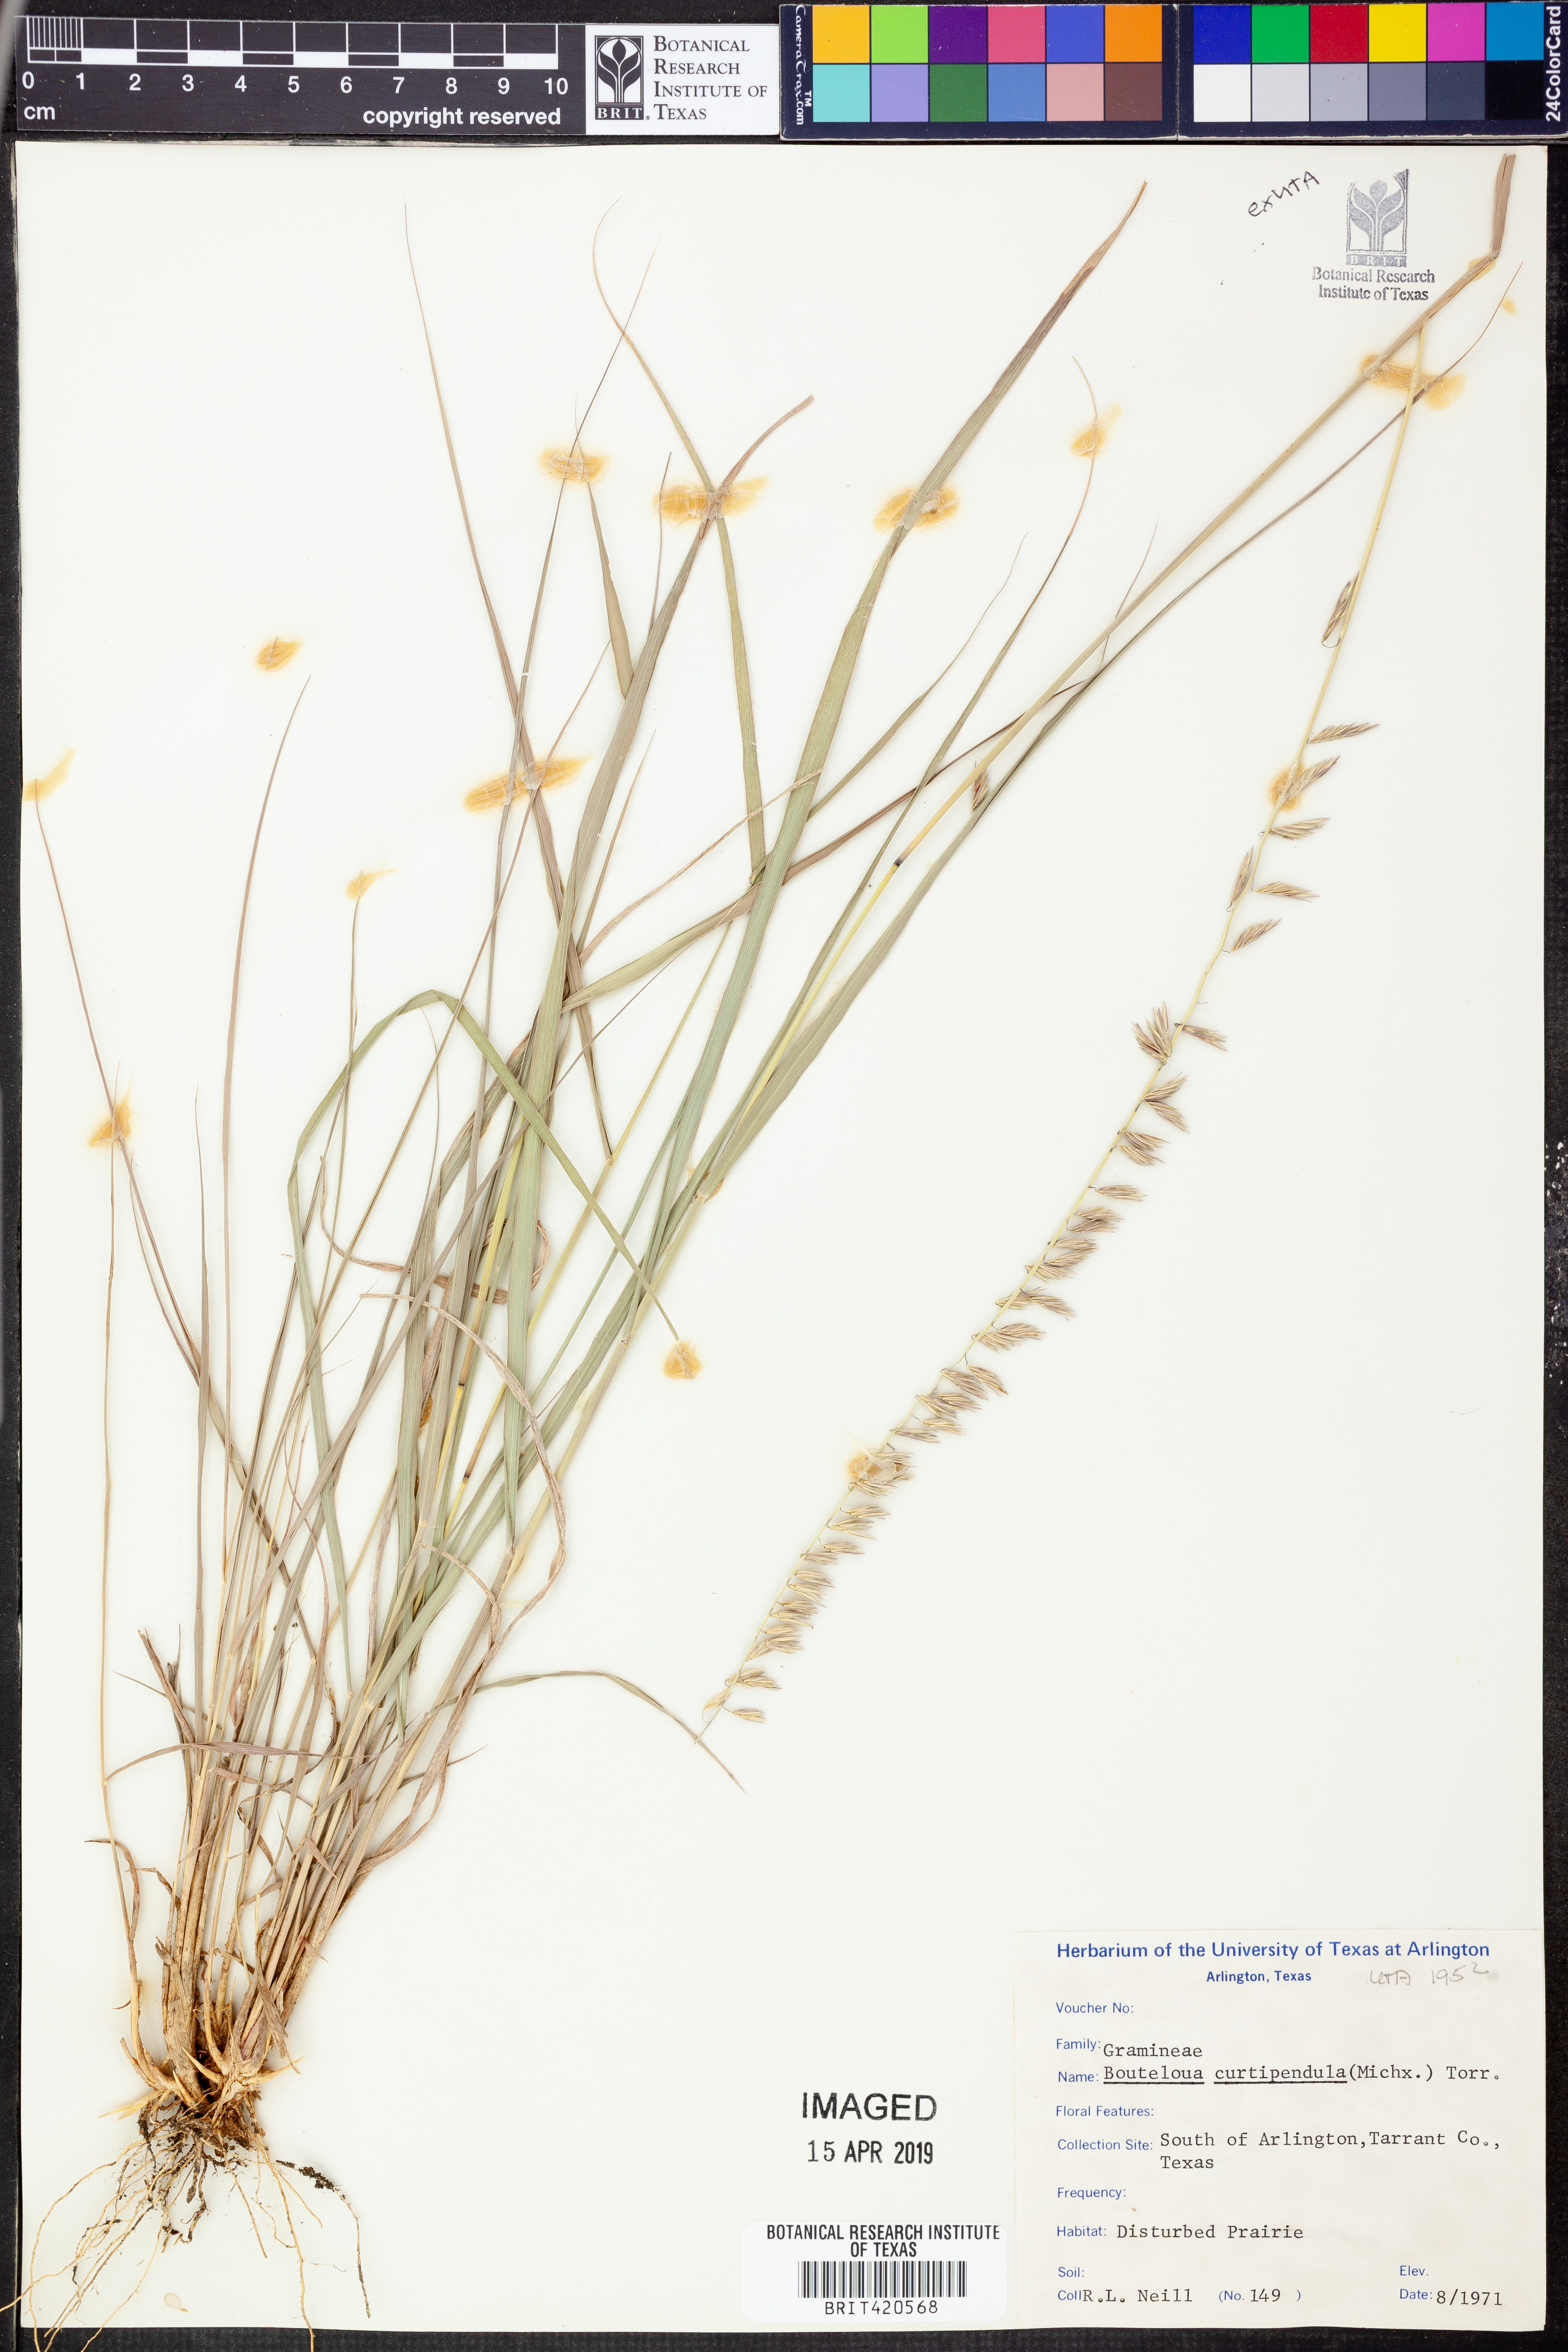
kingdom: Plantae
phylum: Tracheophyta
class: Liliopsida
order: Poales
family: Poaceae
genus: Bouteloua
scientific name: Bouteloua curtipendula
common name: Side-oats grama
